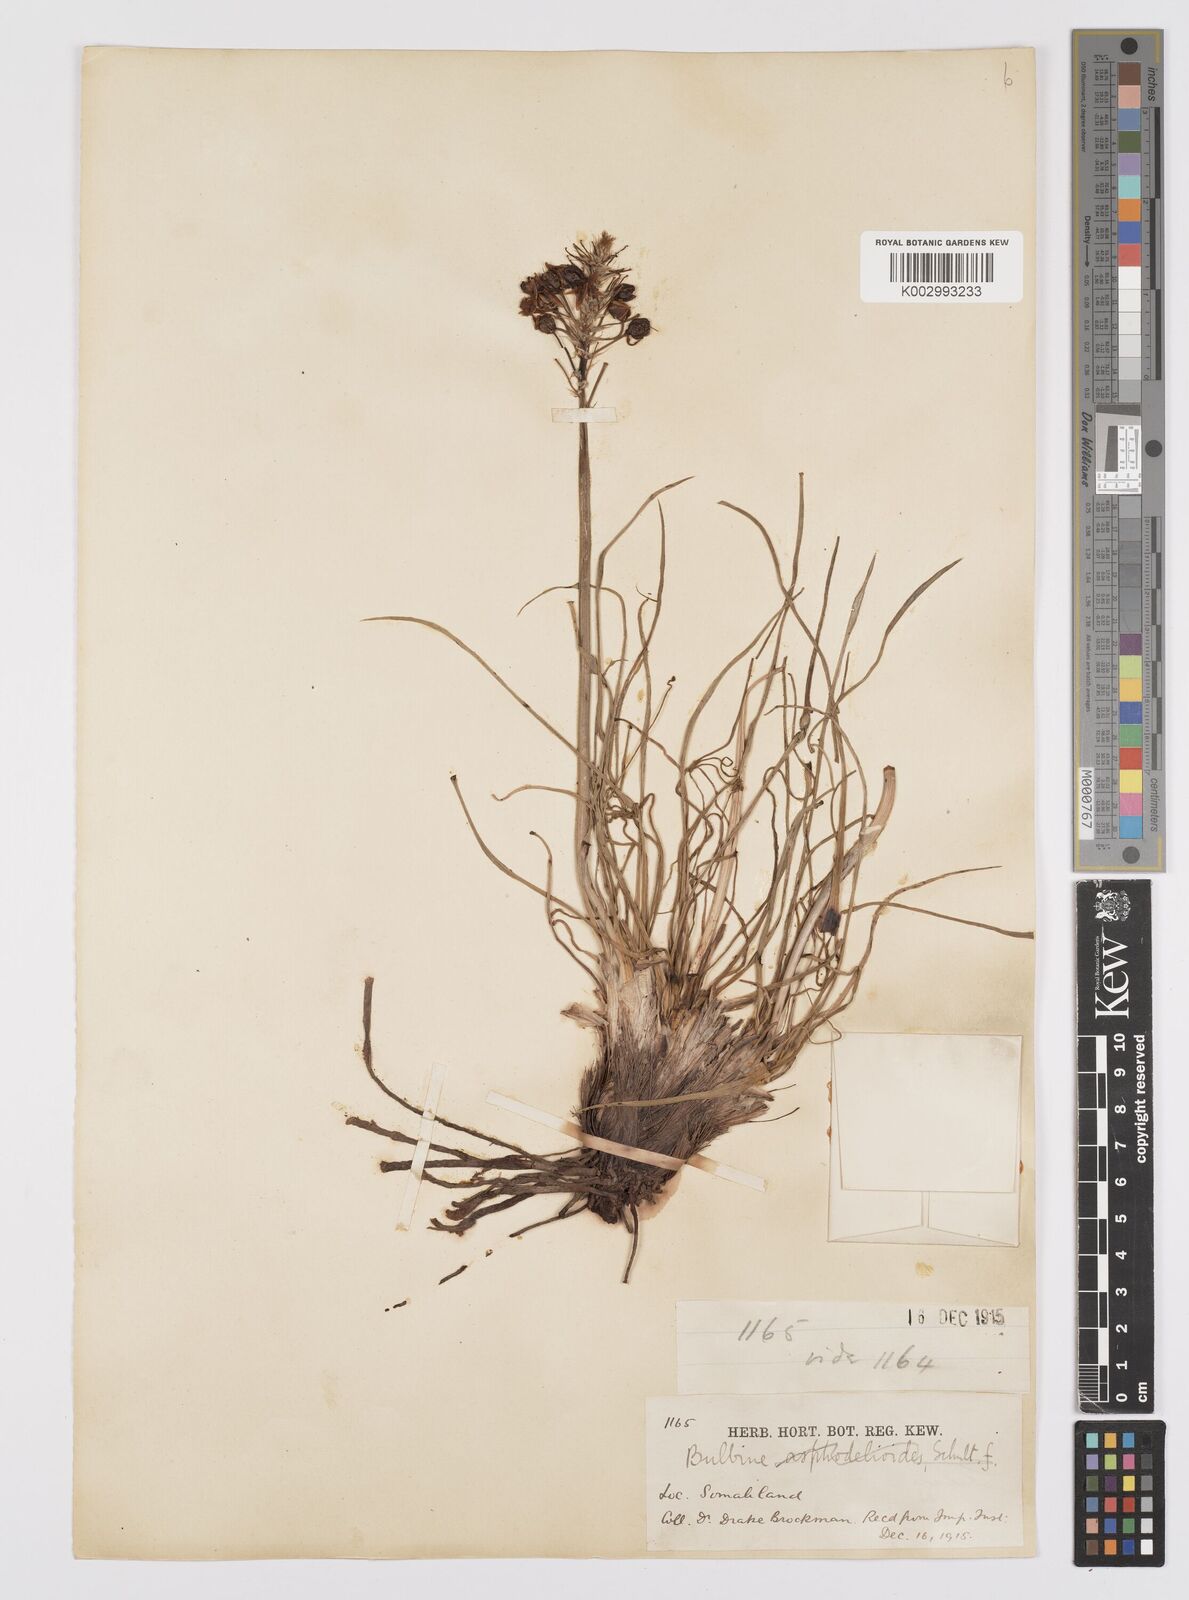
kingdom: Plantae
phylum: Tracheophyta
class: Liliopsida
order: Asparagales
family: Asphodelaceae
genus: Bulbine
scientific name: Bulbine abyssinica
